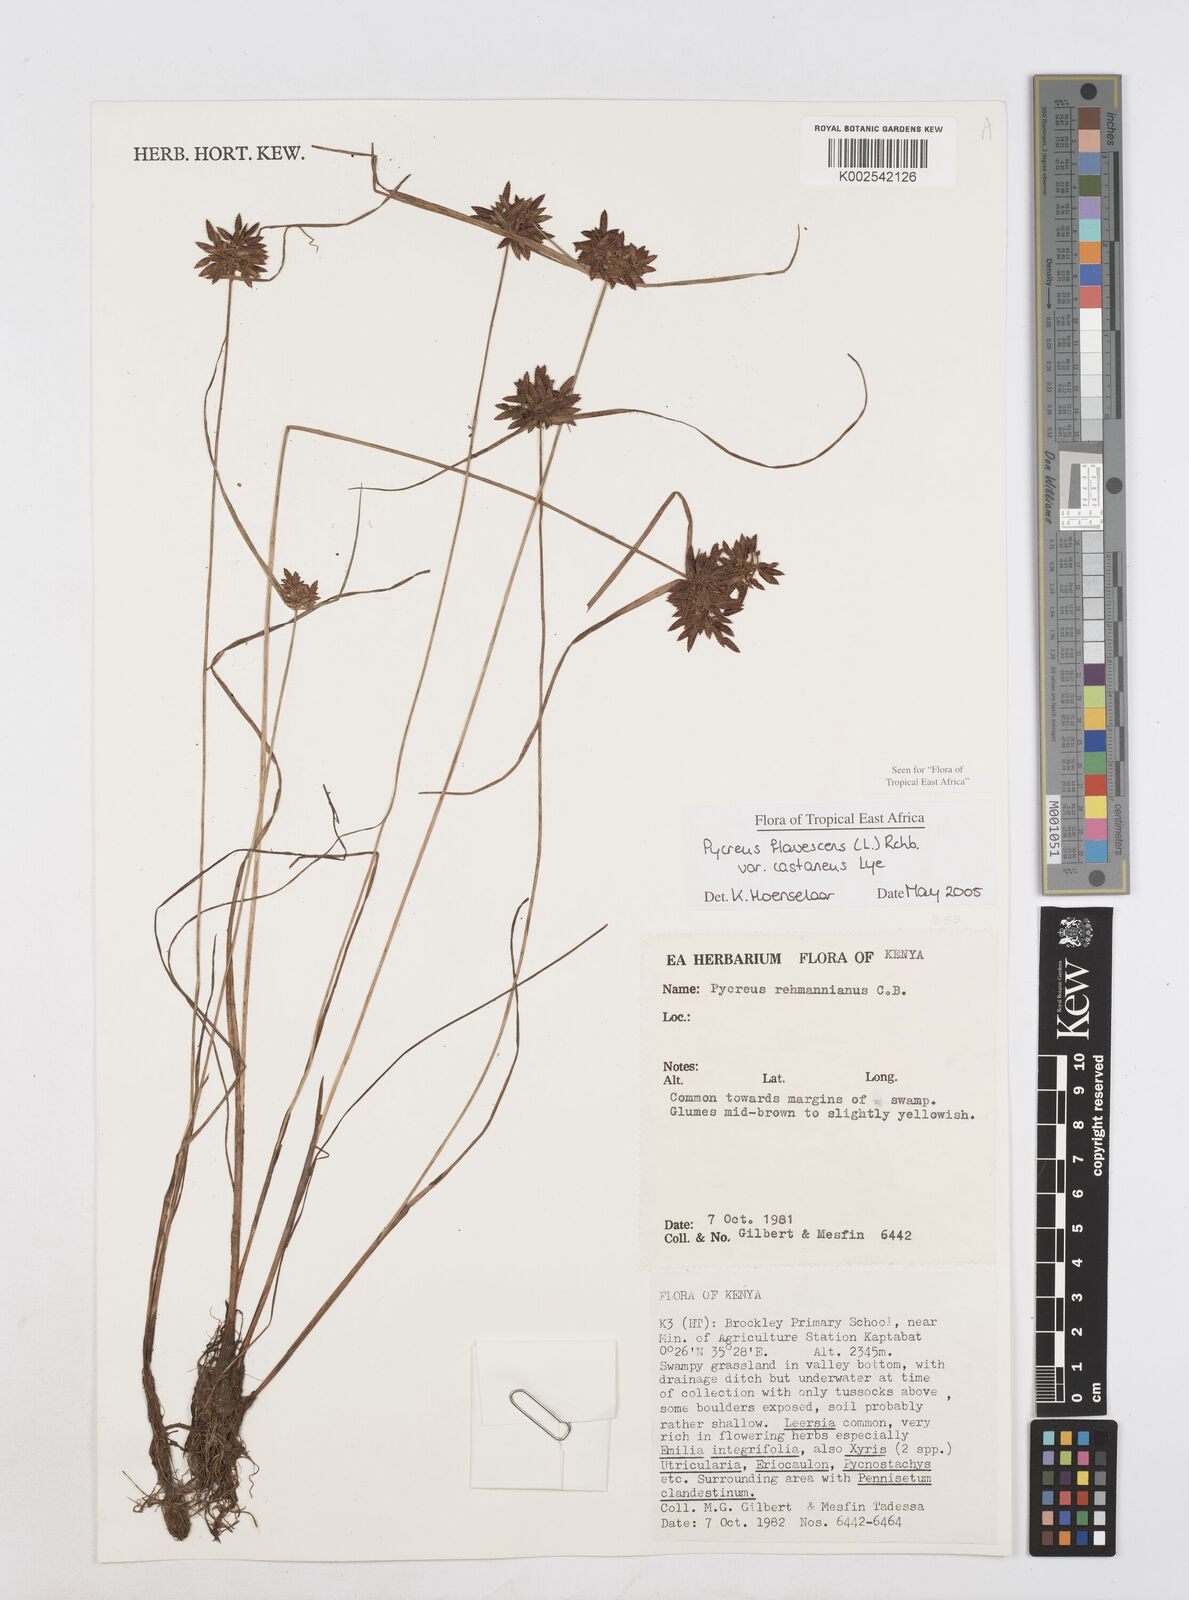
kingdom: Plantae
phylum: Tracheophyta
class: Liliopsida
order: Poales
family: Cyperaceae
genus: Cyperus
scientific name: Cyperus flavescens
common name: Yellow galingale
